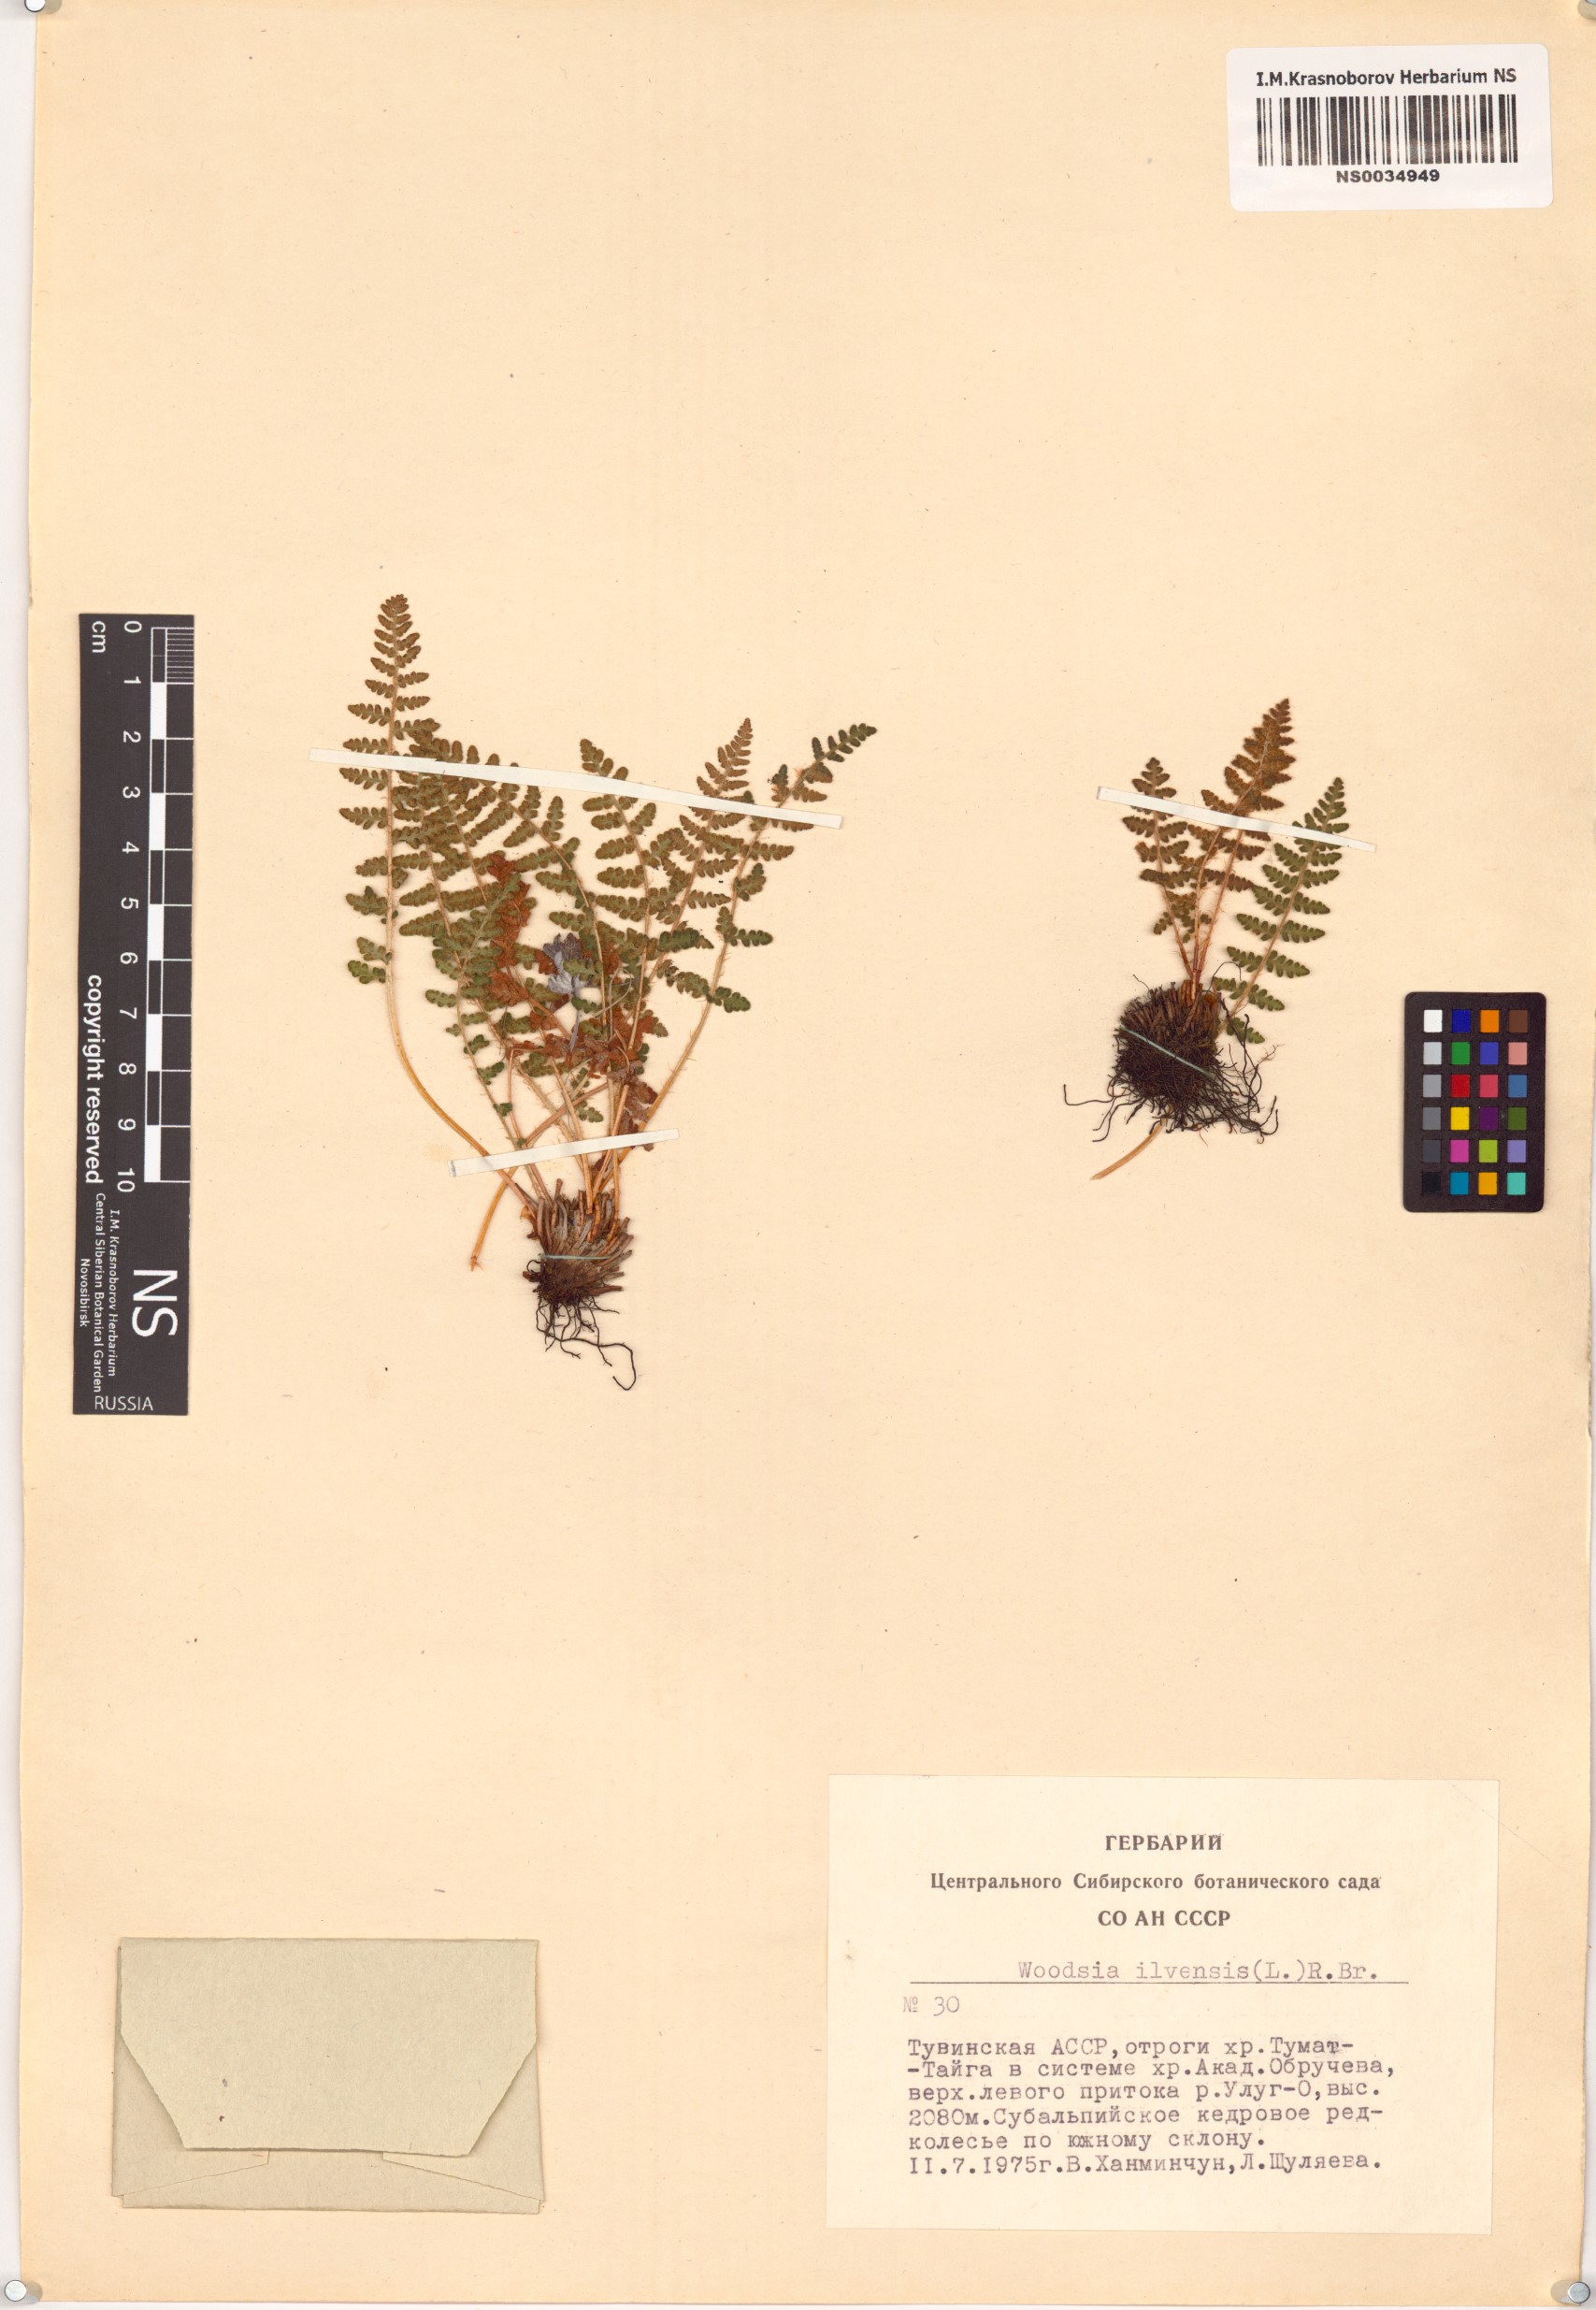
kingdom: Plantae
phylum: Tracheophyta
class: Polypodiopsida
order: Polypodiales
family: Woodsiaceae
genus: Woodsia
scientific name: Woodsia ilvensis
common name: Fragrant woodsia
